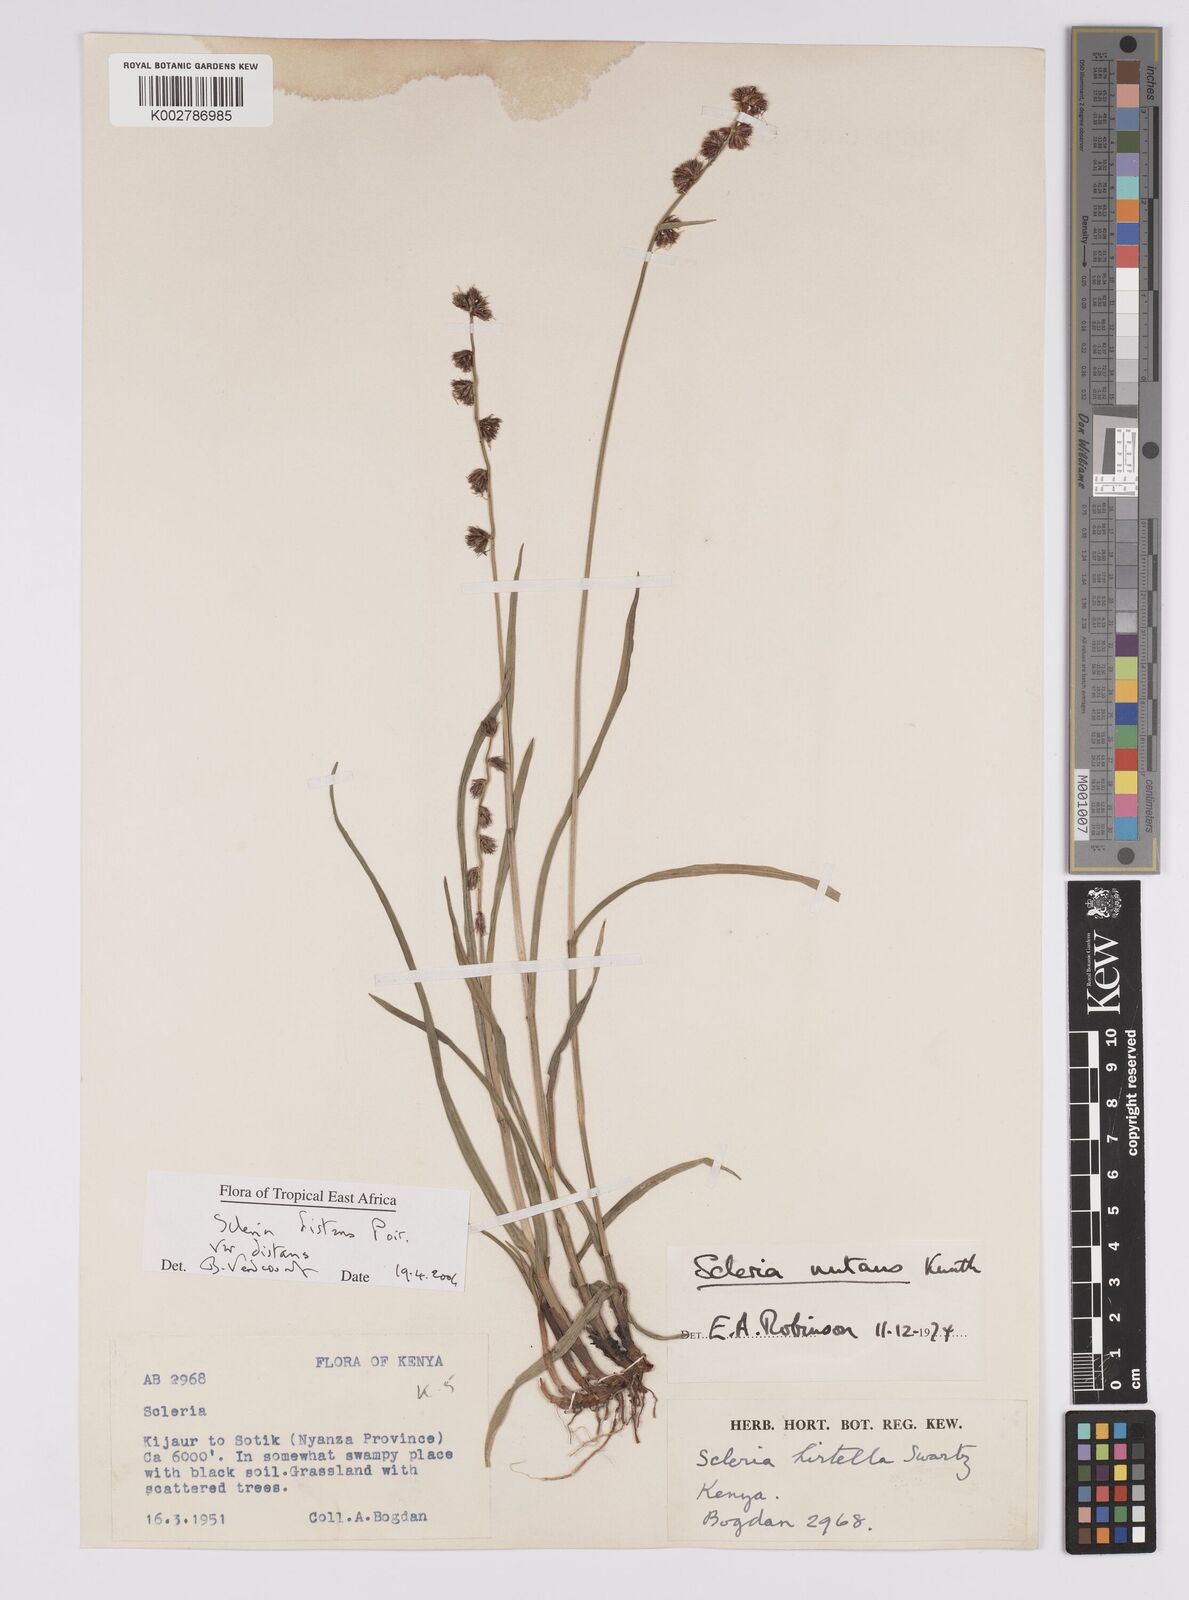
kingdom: Plantae
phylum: Tracheophyta
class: Liliopsida
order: Poales
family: Cyperaceae
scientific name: Cyperaceae
